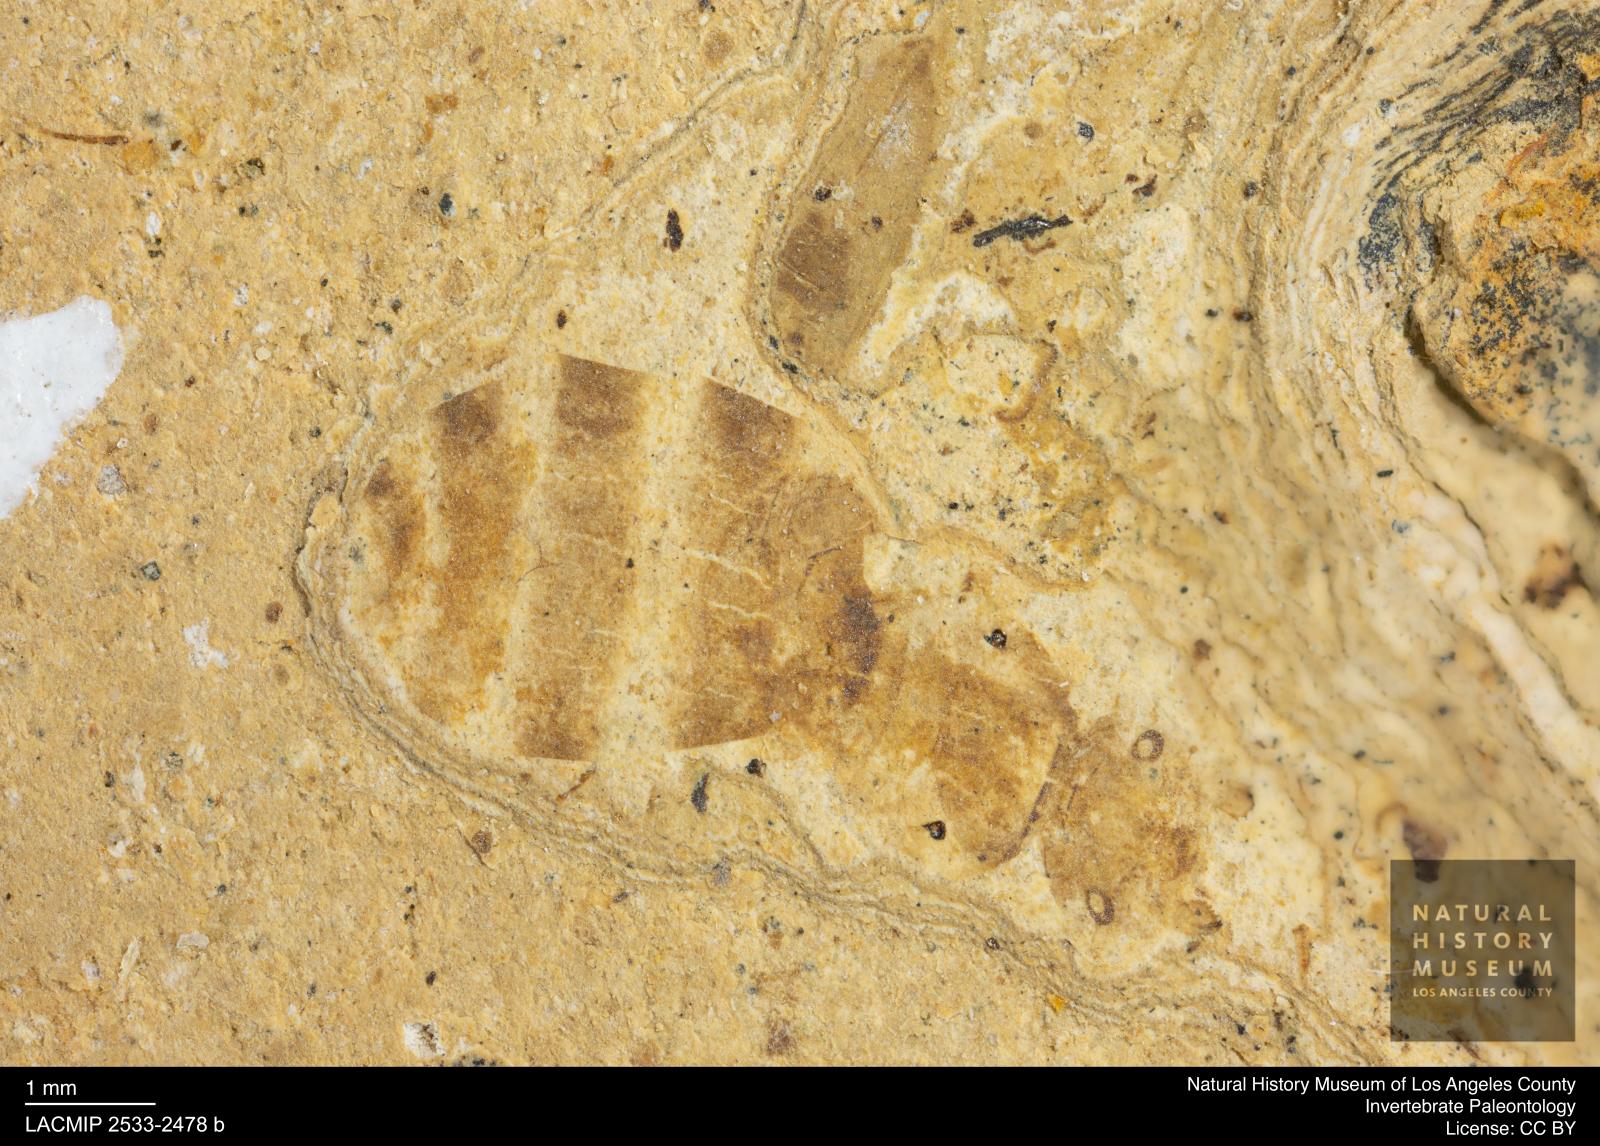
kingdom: Animalia
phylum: Arthropoda
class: Insecta
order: Hymenoptera
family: Formicidae
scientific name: Formicidae
